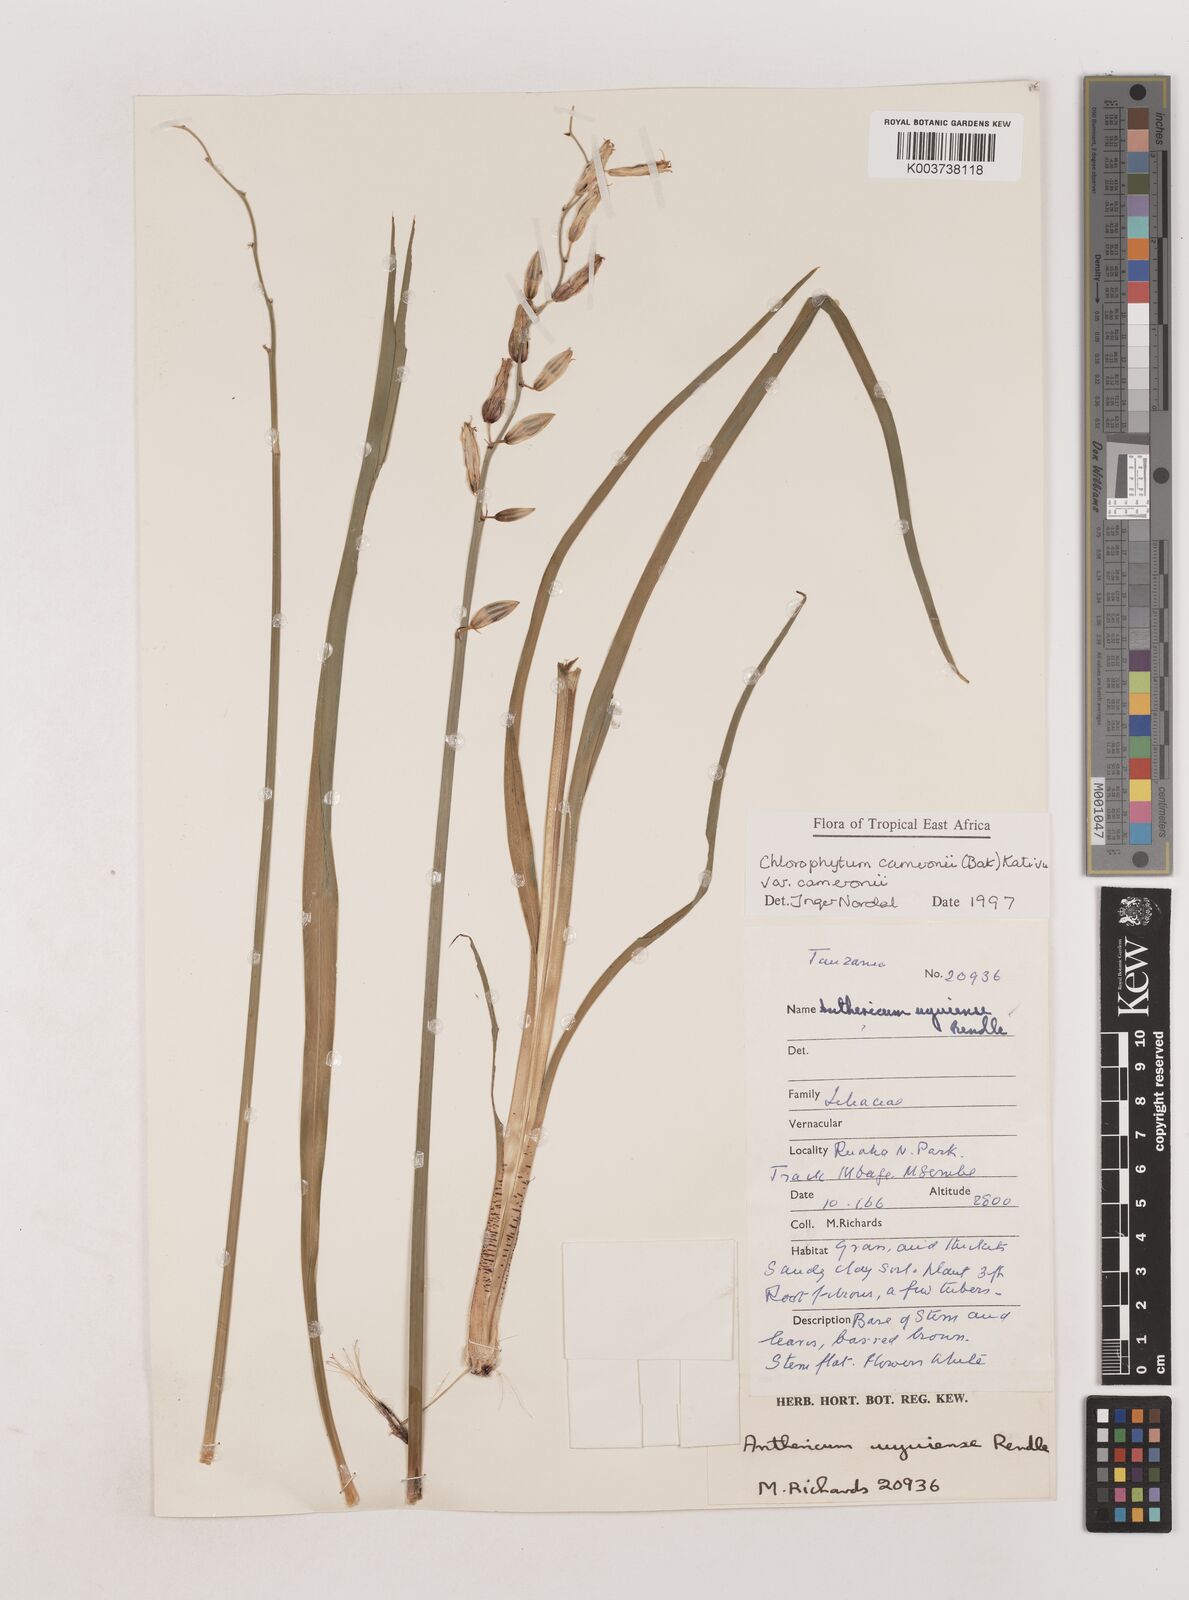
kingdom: Plantae
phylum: Tracheophyta
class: Liliopsida
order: Asparagales
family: Asparagaceae
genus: Chlorophytum
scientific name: Chlorophytum cameronii
